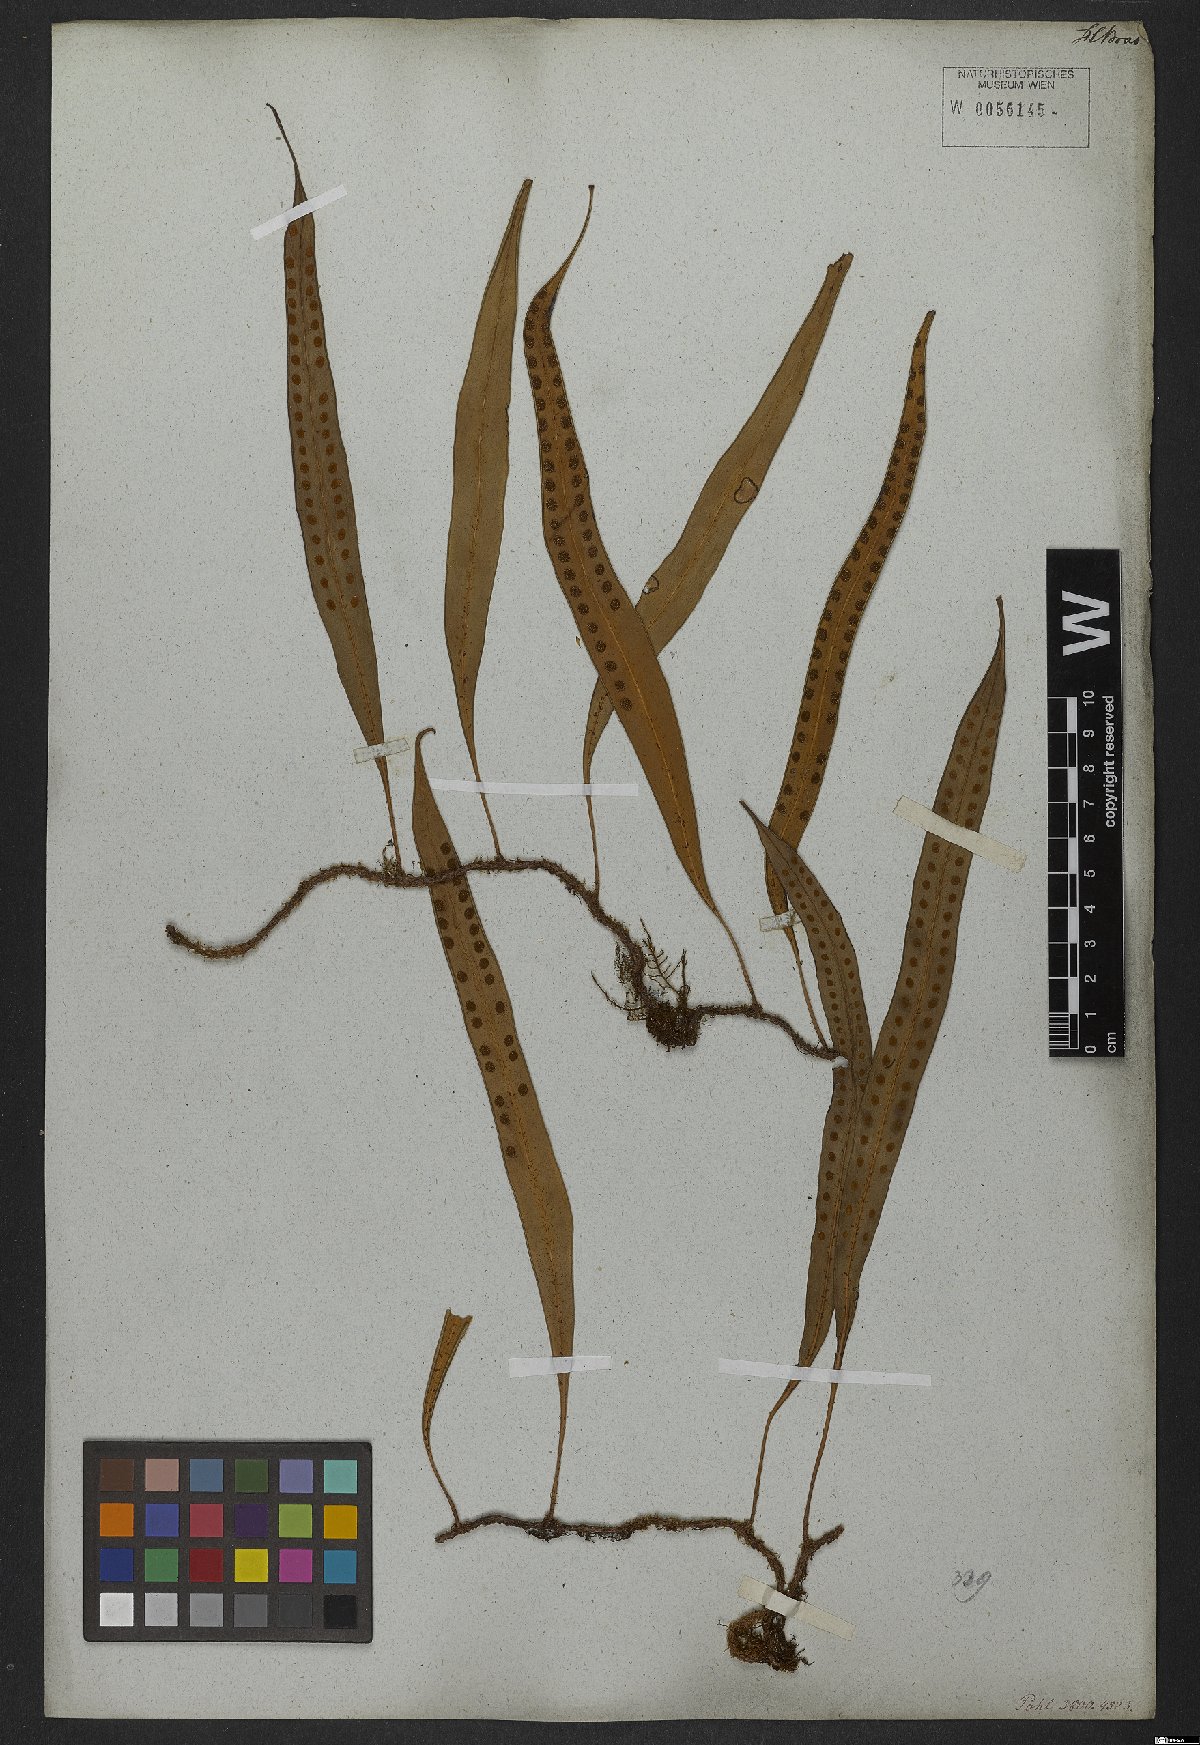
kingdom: Plantae
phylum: Tracheophyta
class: Polypodiopsida
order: Polypodiales
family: Polypodiaceae
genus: Microgramma
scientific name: Microgramma percussa
